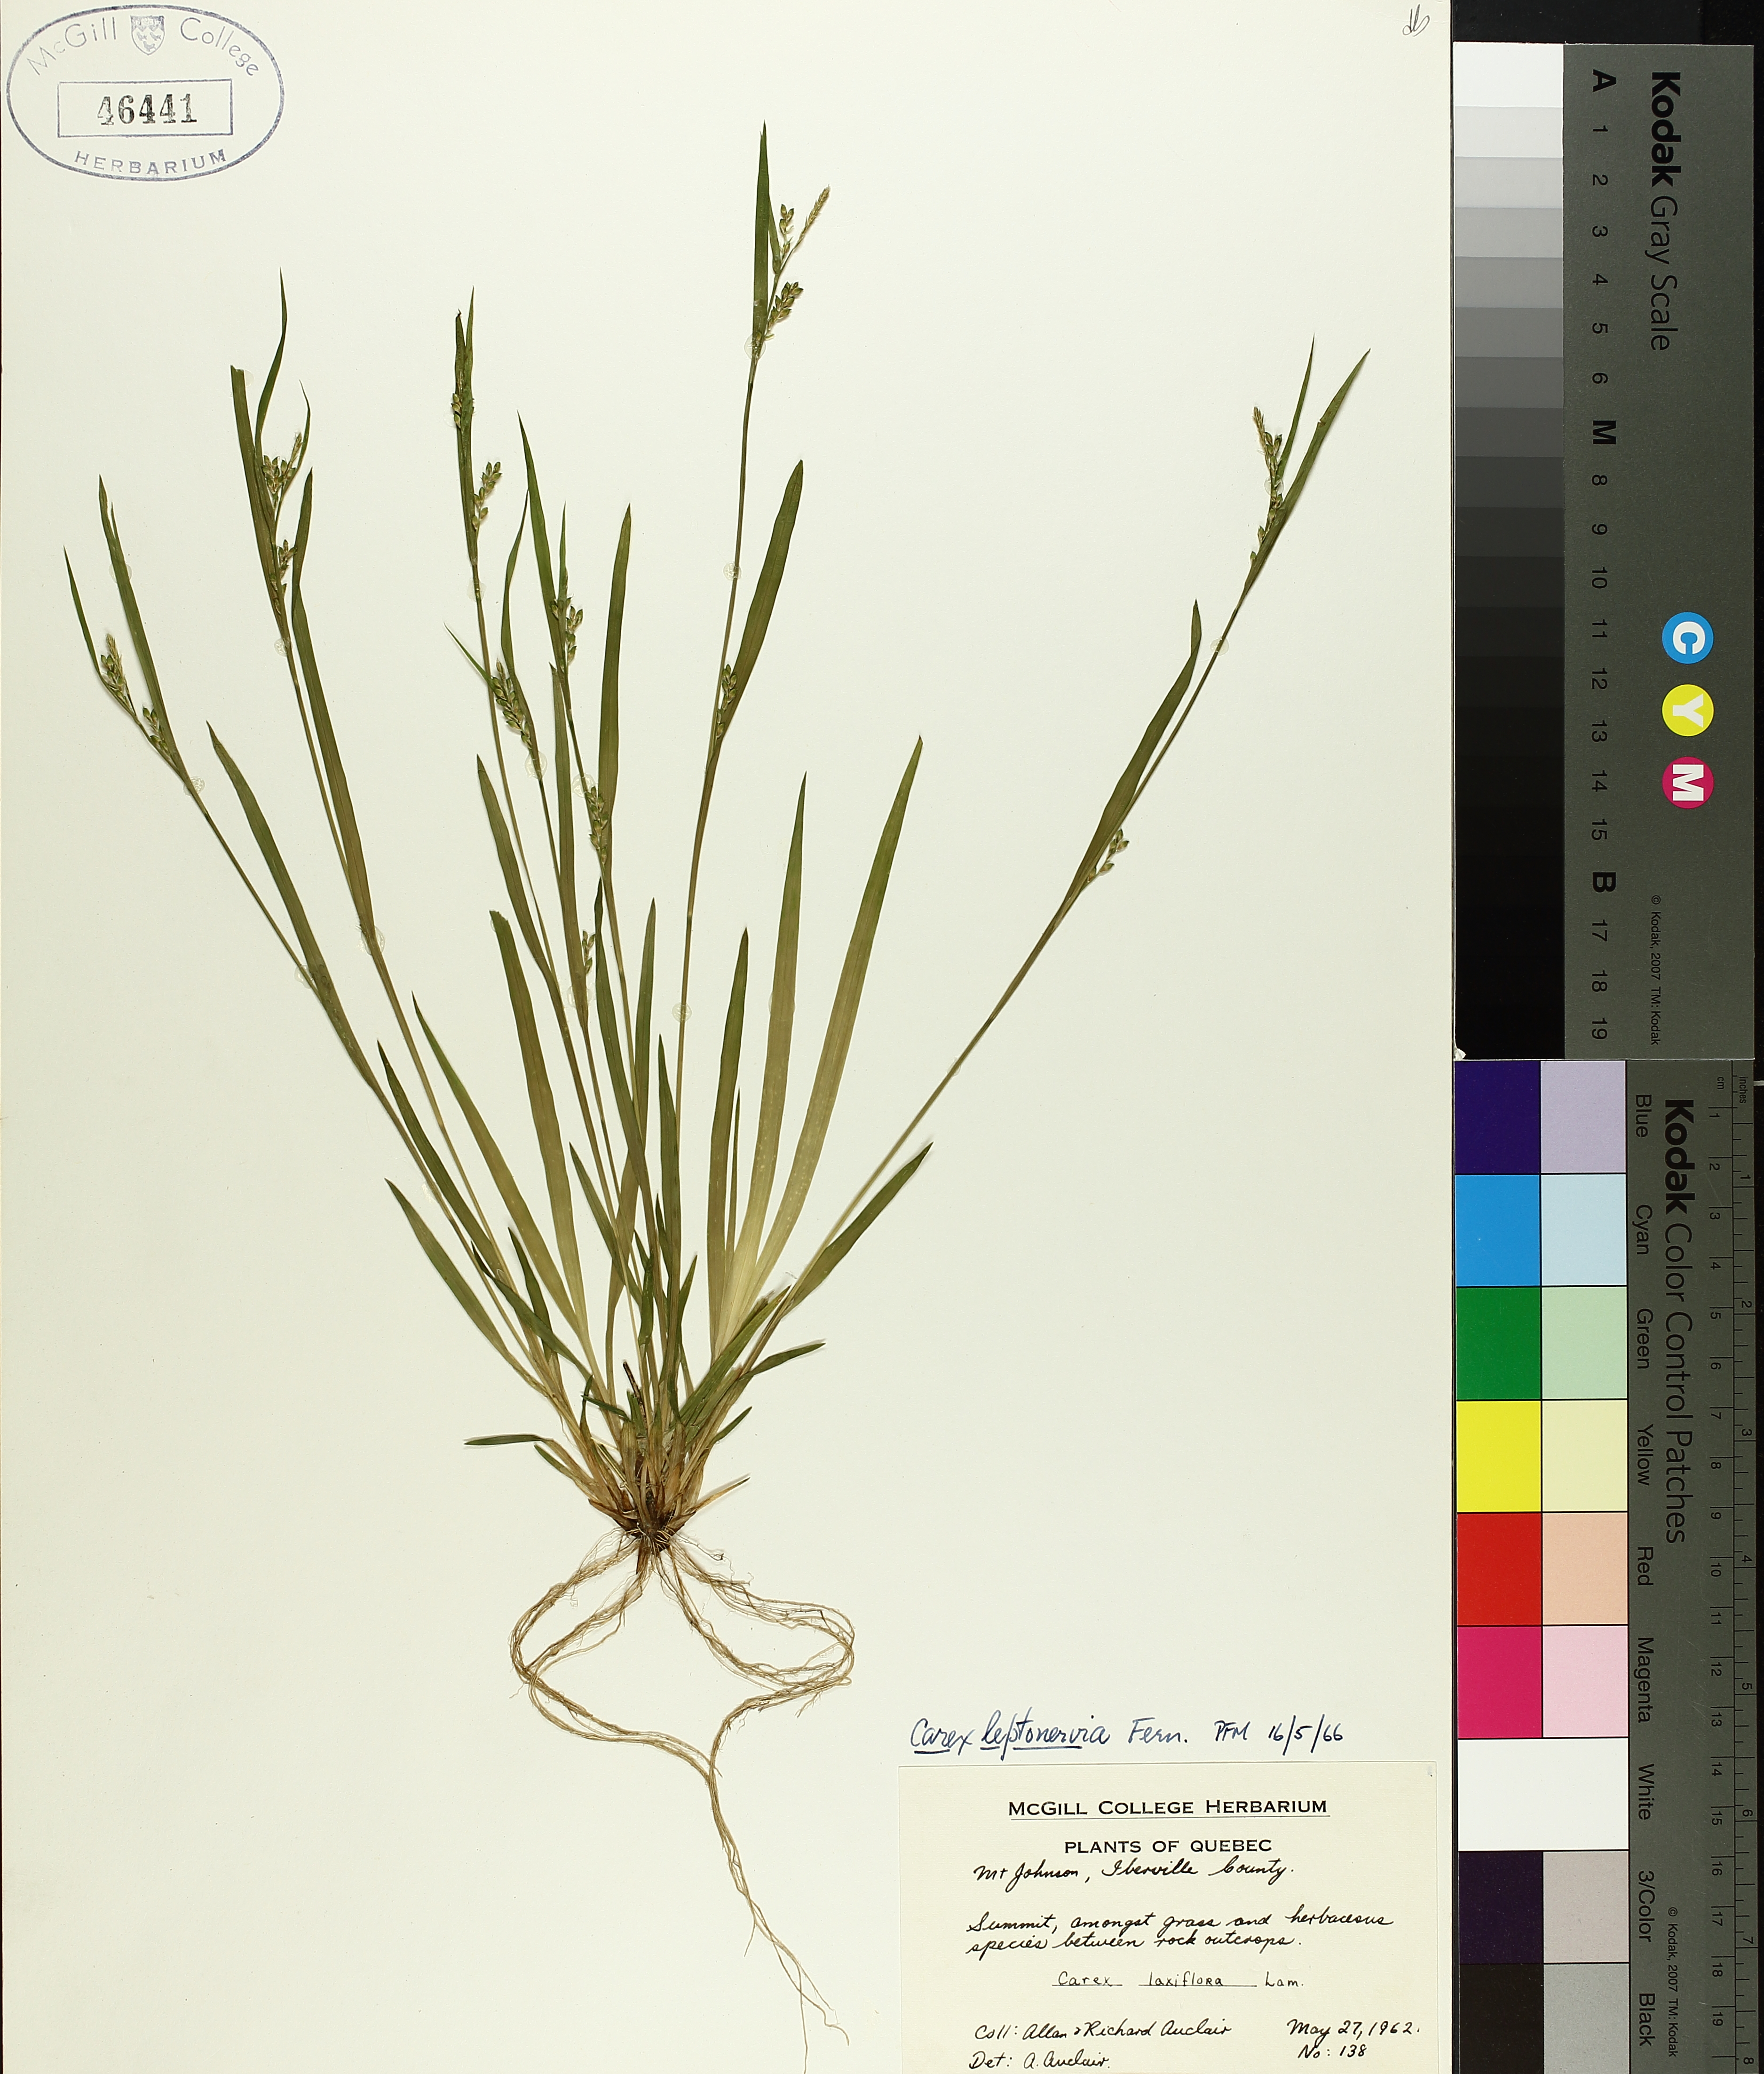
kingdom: Plantae
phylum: Tracheophyta
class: Liliopsida
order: Poales
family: Cyperaceae
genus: Carex
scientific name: Carex leptonervia
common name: Few-nerved wood sedge
